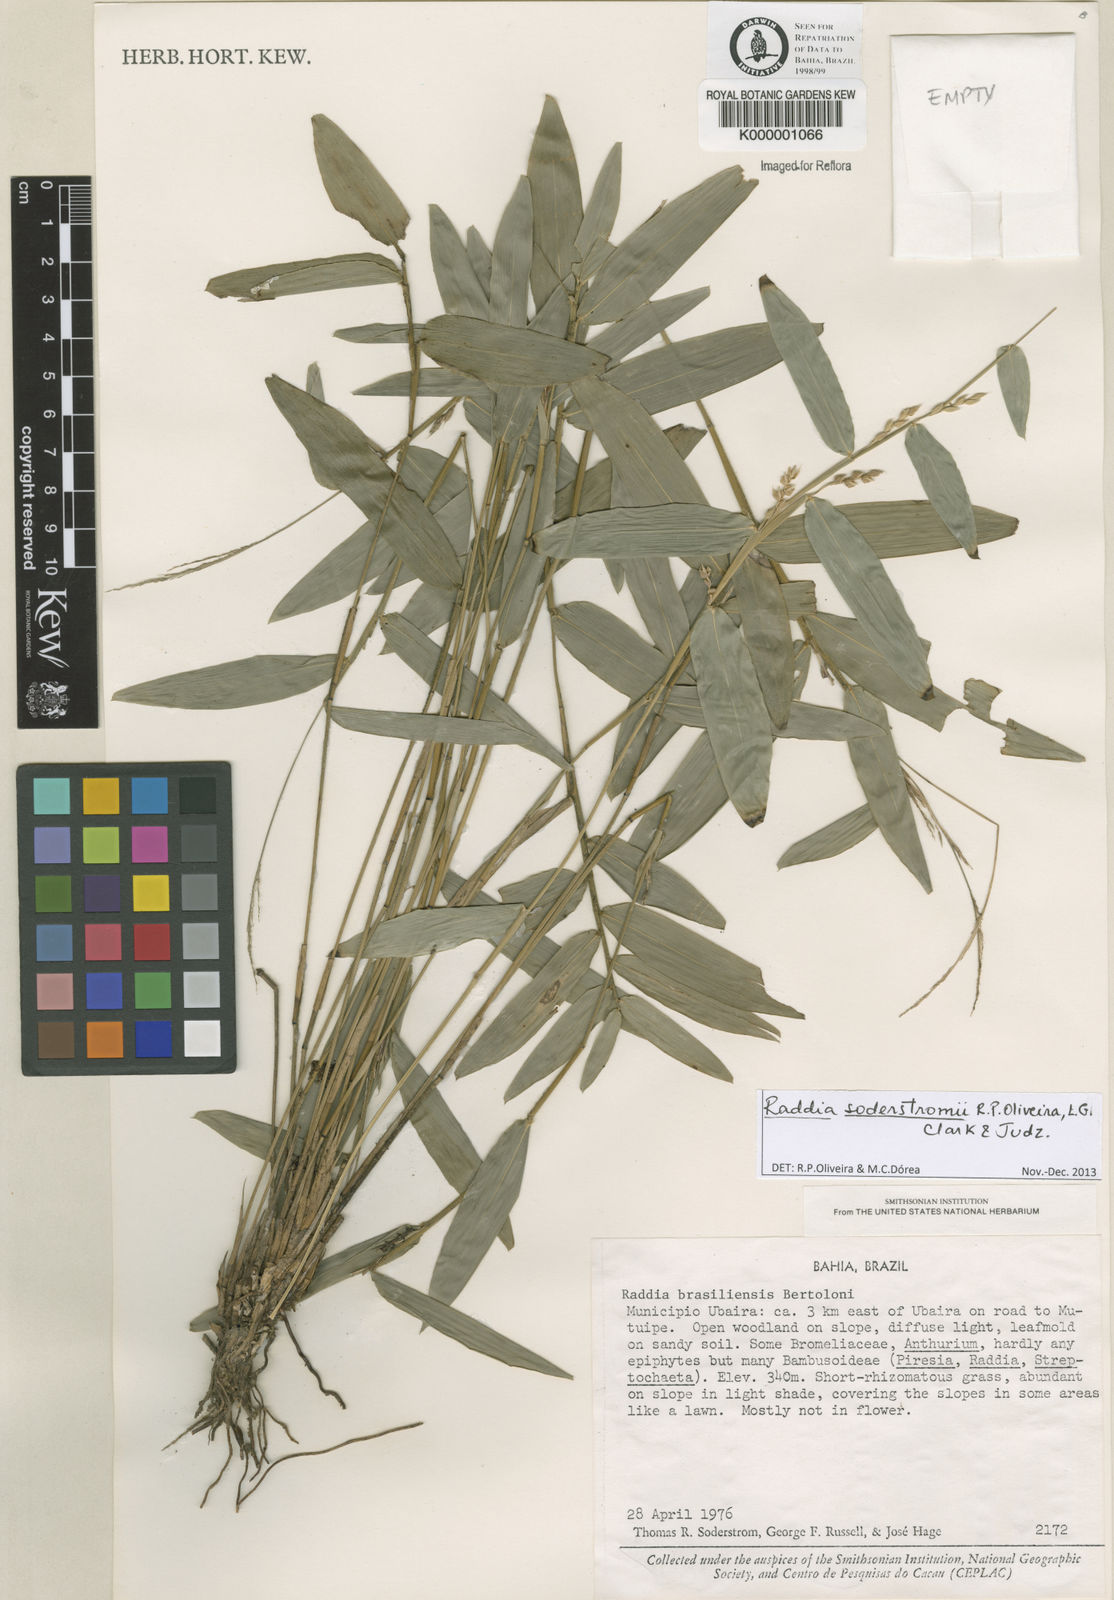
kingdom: Plantae
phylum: Tracheophyta
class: Liliopsida
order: Poales
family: Poaceae
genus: Raddia
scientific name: Raddia brasiliensis
